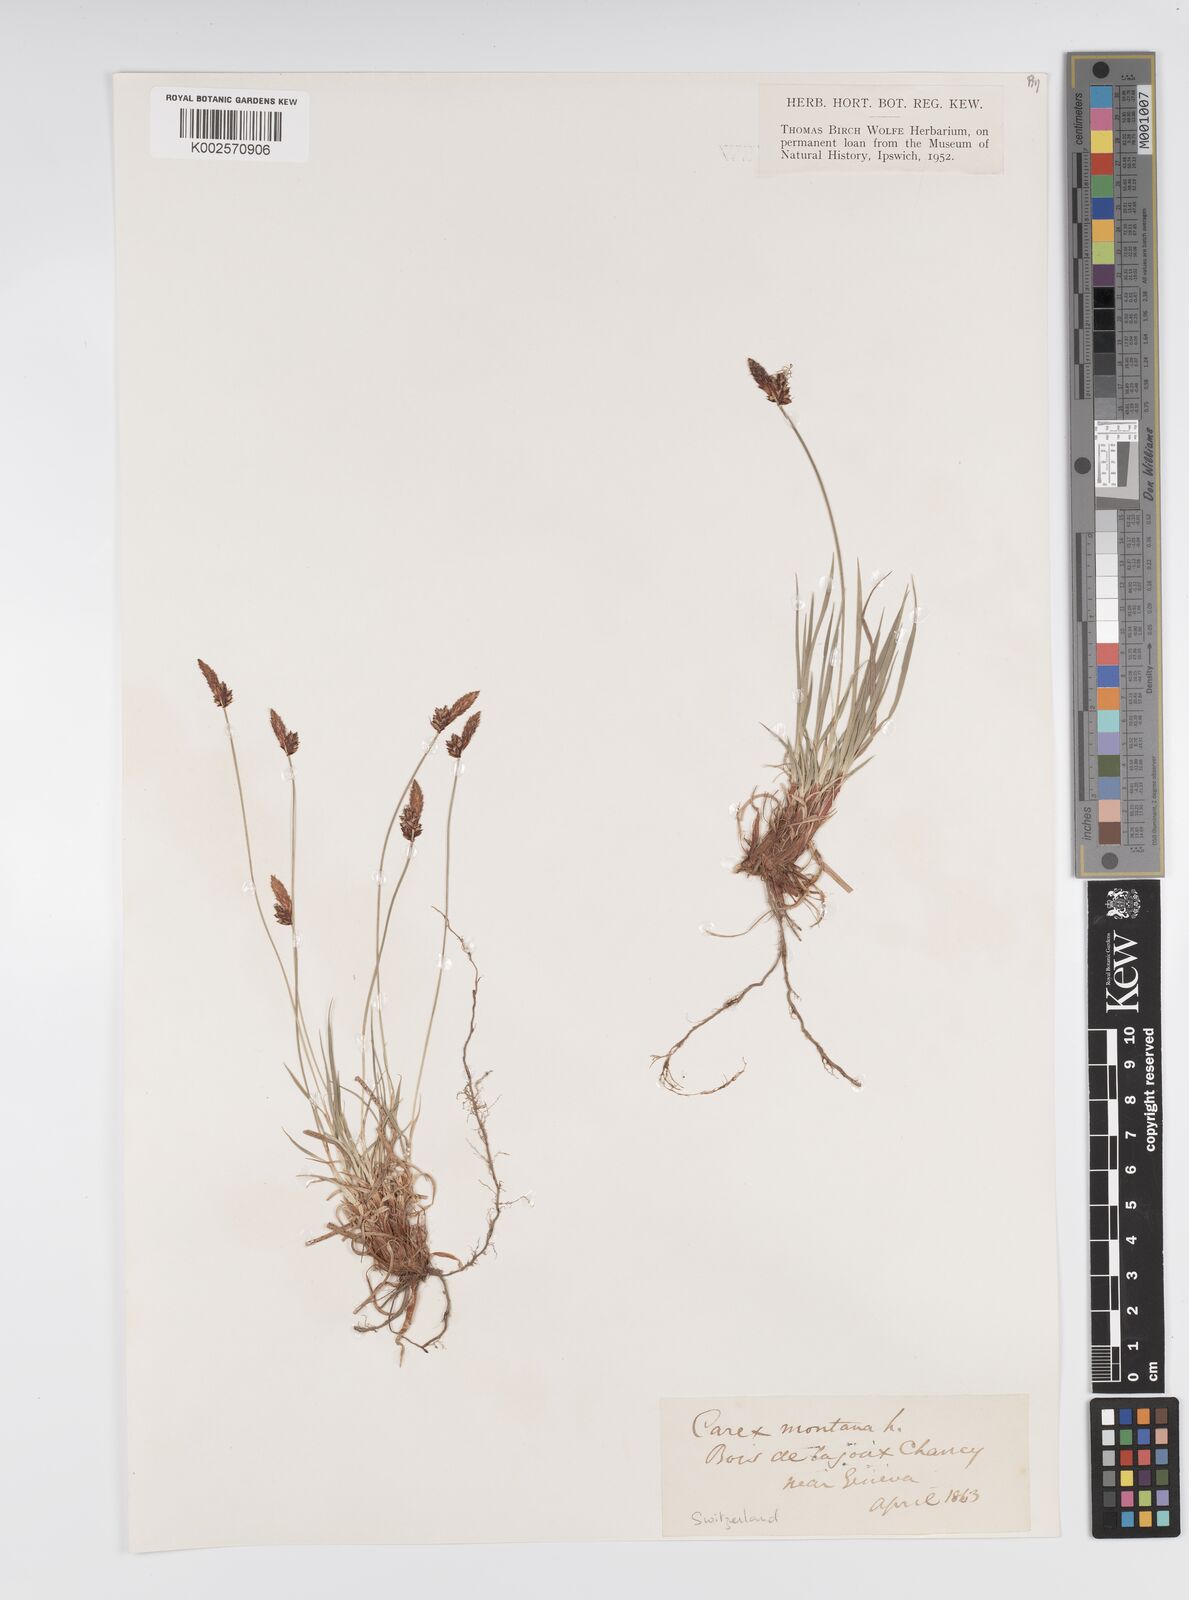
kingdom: Plantae
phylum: Tracheophyta
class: Liliopsida
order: Poales
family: Cyperaceae
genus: Carex
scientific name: Carex montana
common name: Soft-leaved sedge
